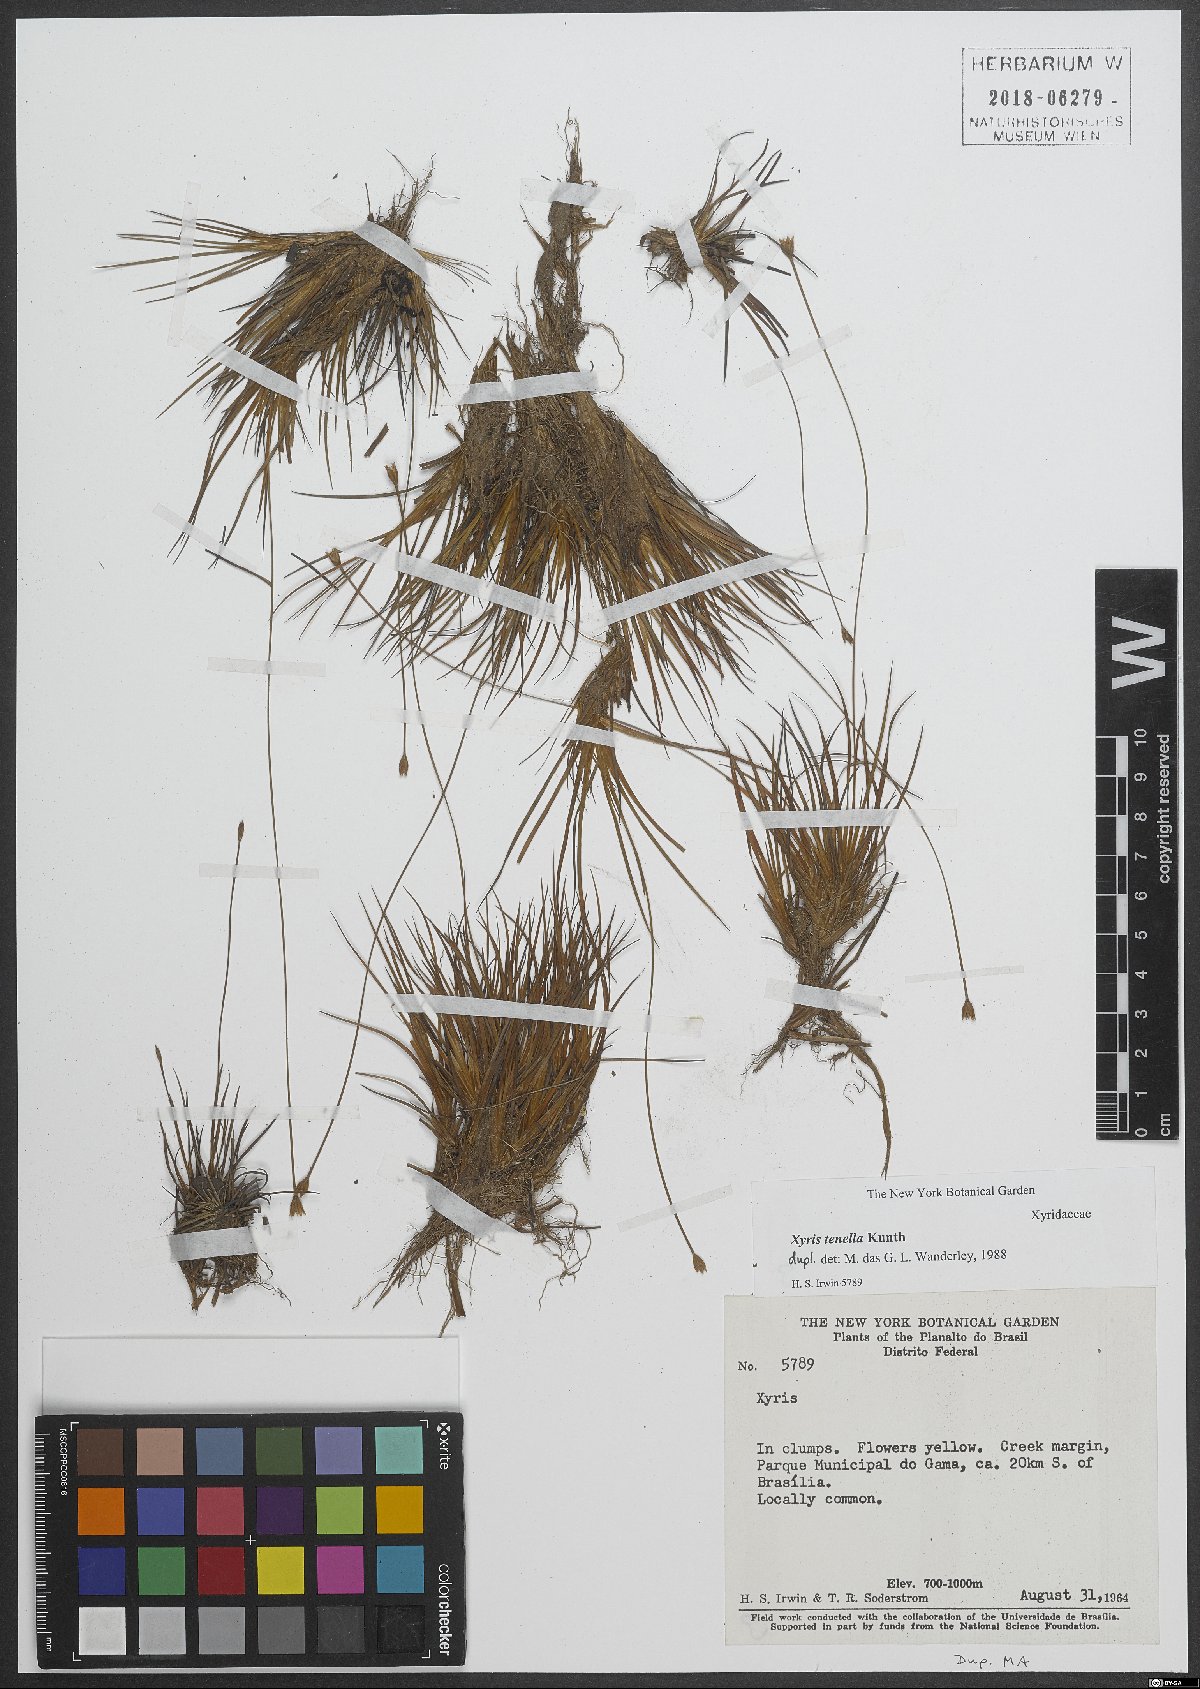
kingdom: Plantae
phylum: Tracheophyta
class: Liliopsida
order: Poales
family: Xyridaceae
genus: Xyris
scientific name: Xyris tenella
